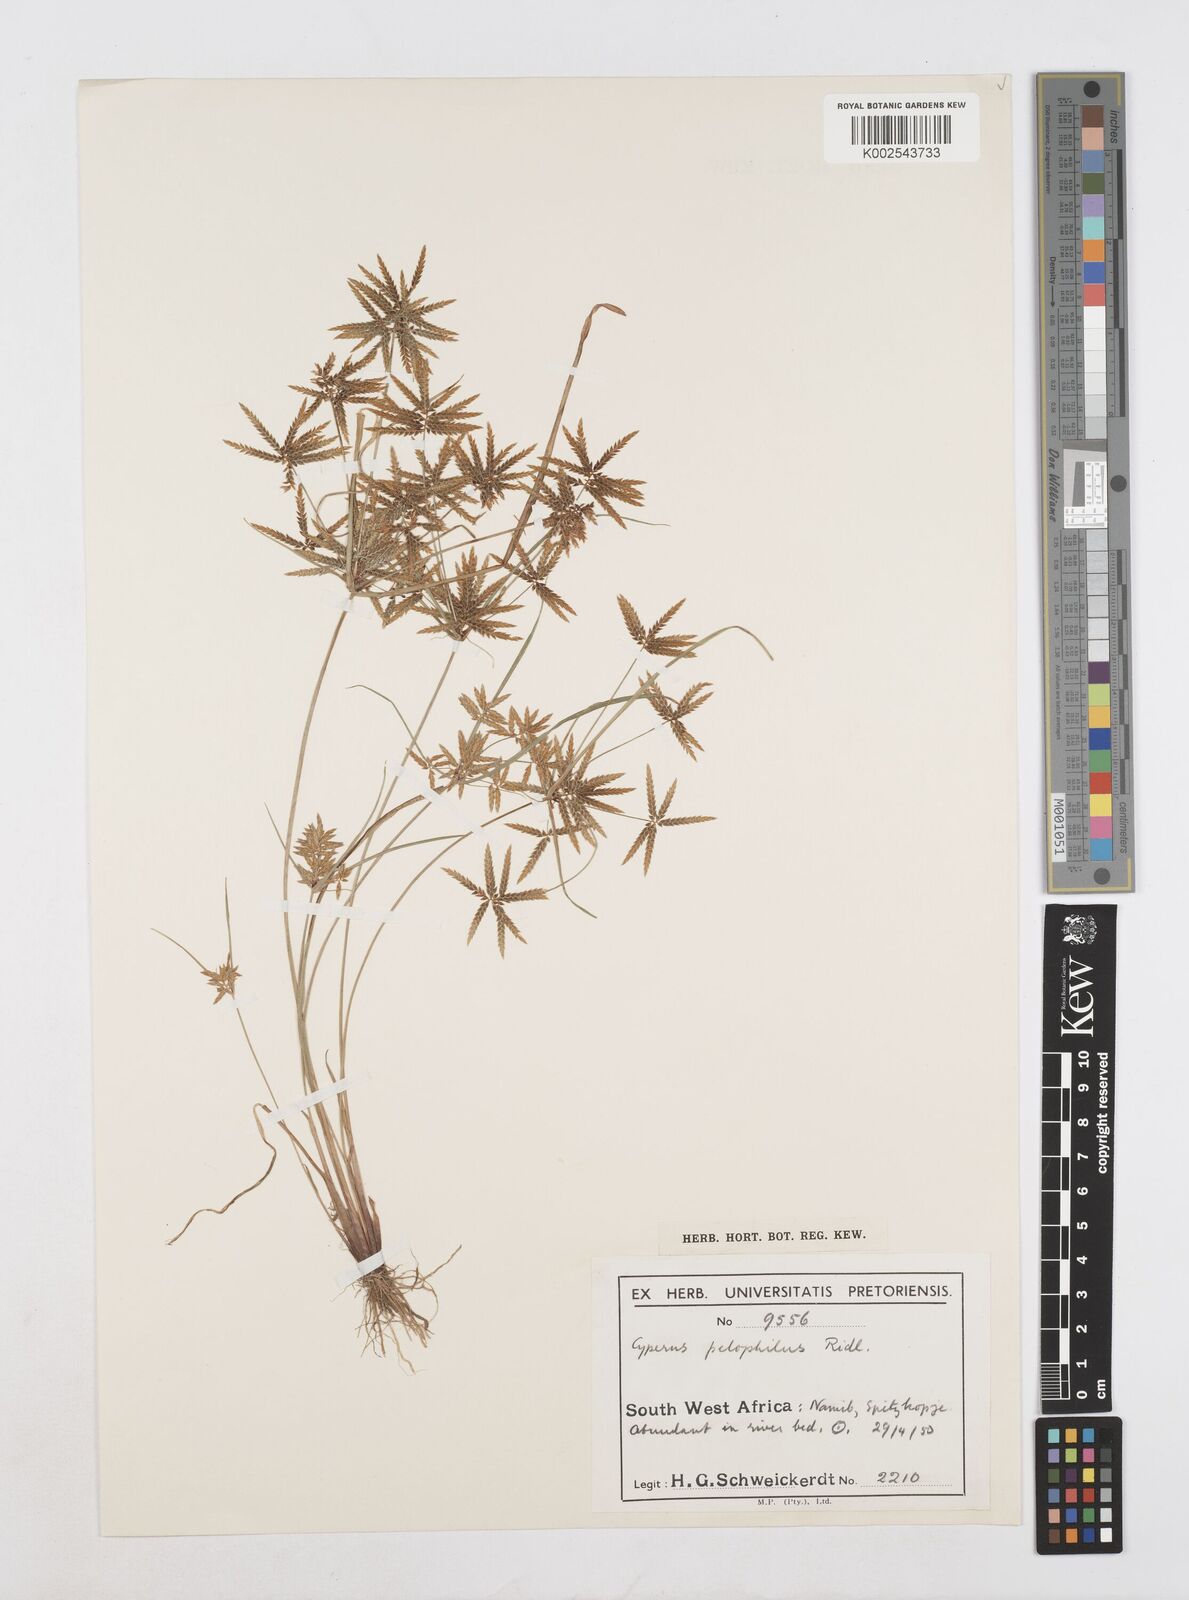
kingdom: Plantae
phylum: Tracheophyta
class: Liliopsida
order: Poales
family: Cyperaceae
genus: Cyperus
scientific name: Cyperus pelophilus
